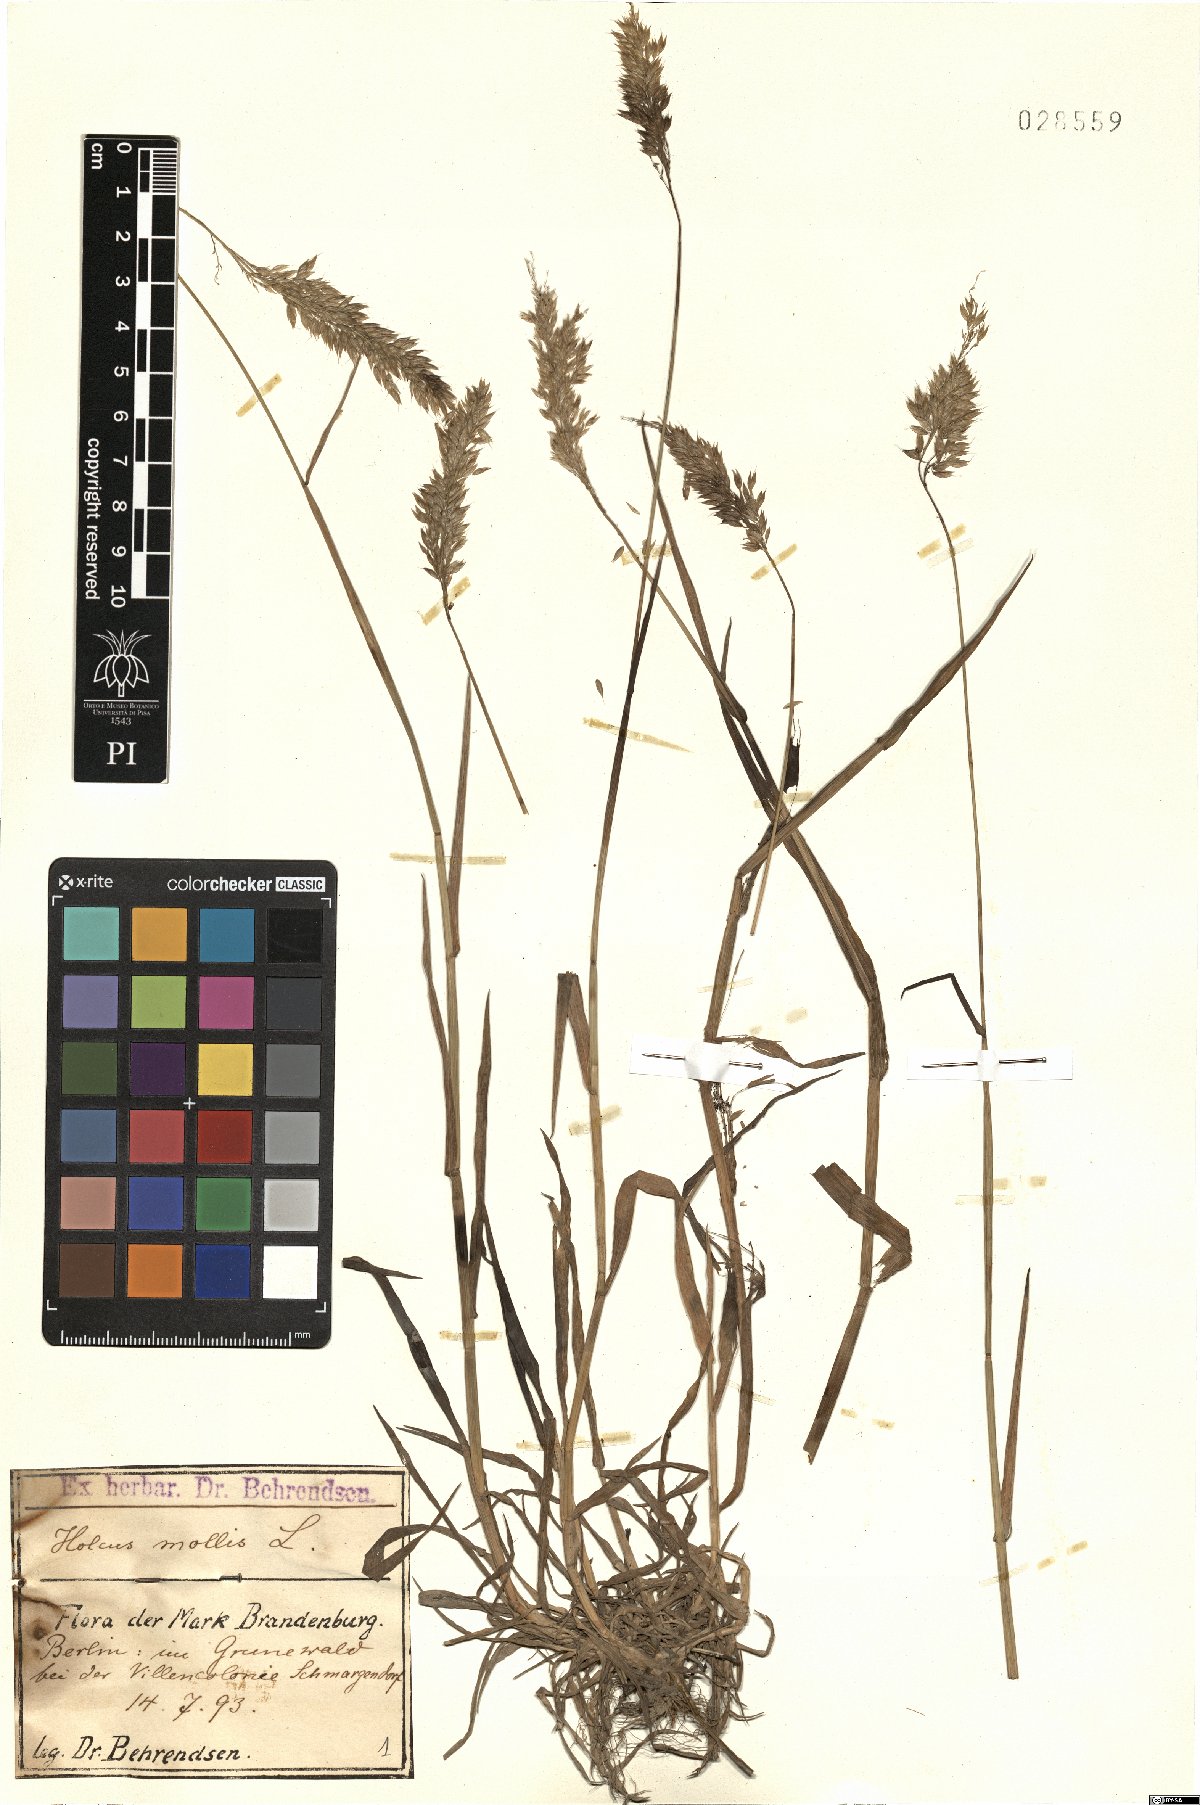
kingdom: Plantae
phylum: Tracheophyta
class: Liliopsida
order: Poales
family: Poaceae
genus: Holcus
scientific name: Holcus mollis
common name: Creeping velvetgrass
